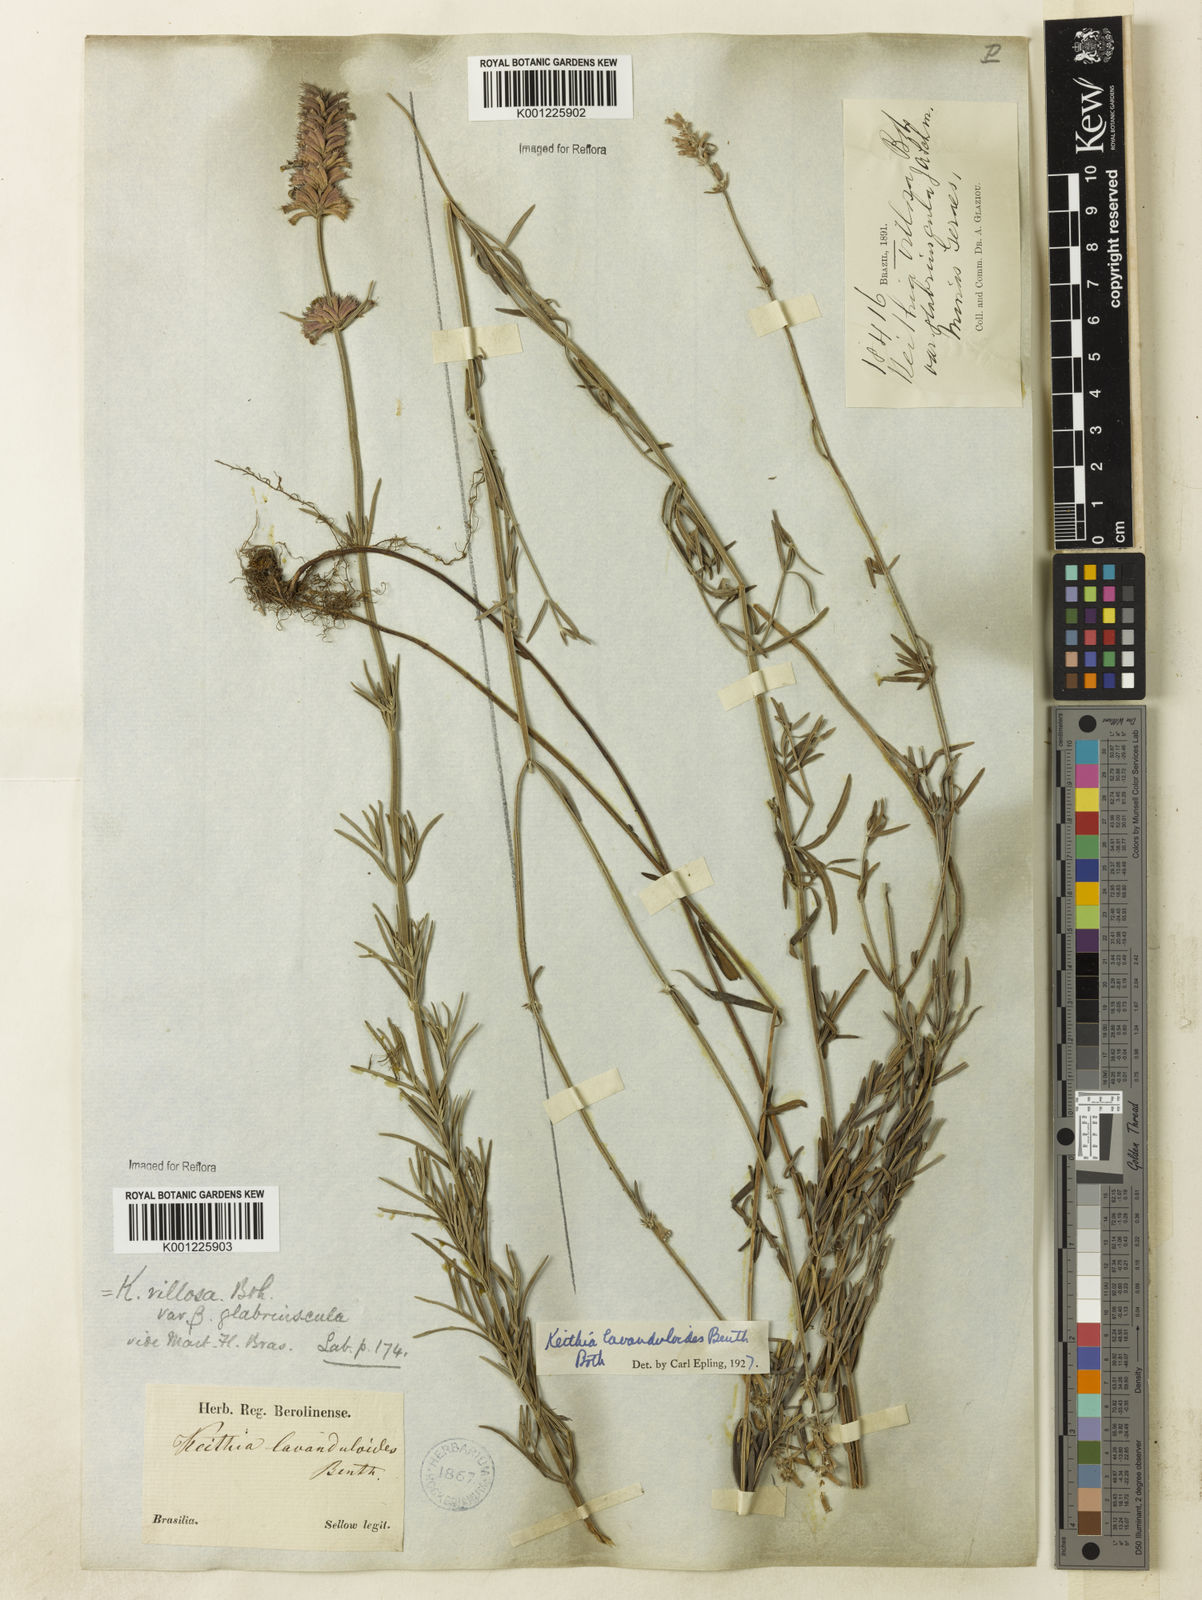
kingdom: Plantae
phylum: Tracheophyta
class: Magnoliopsida
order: Lamiales
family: Lamiaceae
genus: Rhabdocaulon
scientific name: Rhabdocaulon lavanduloides
